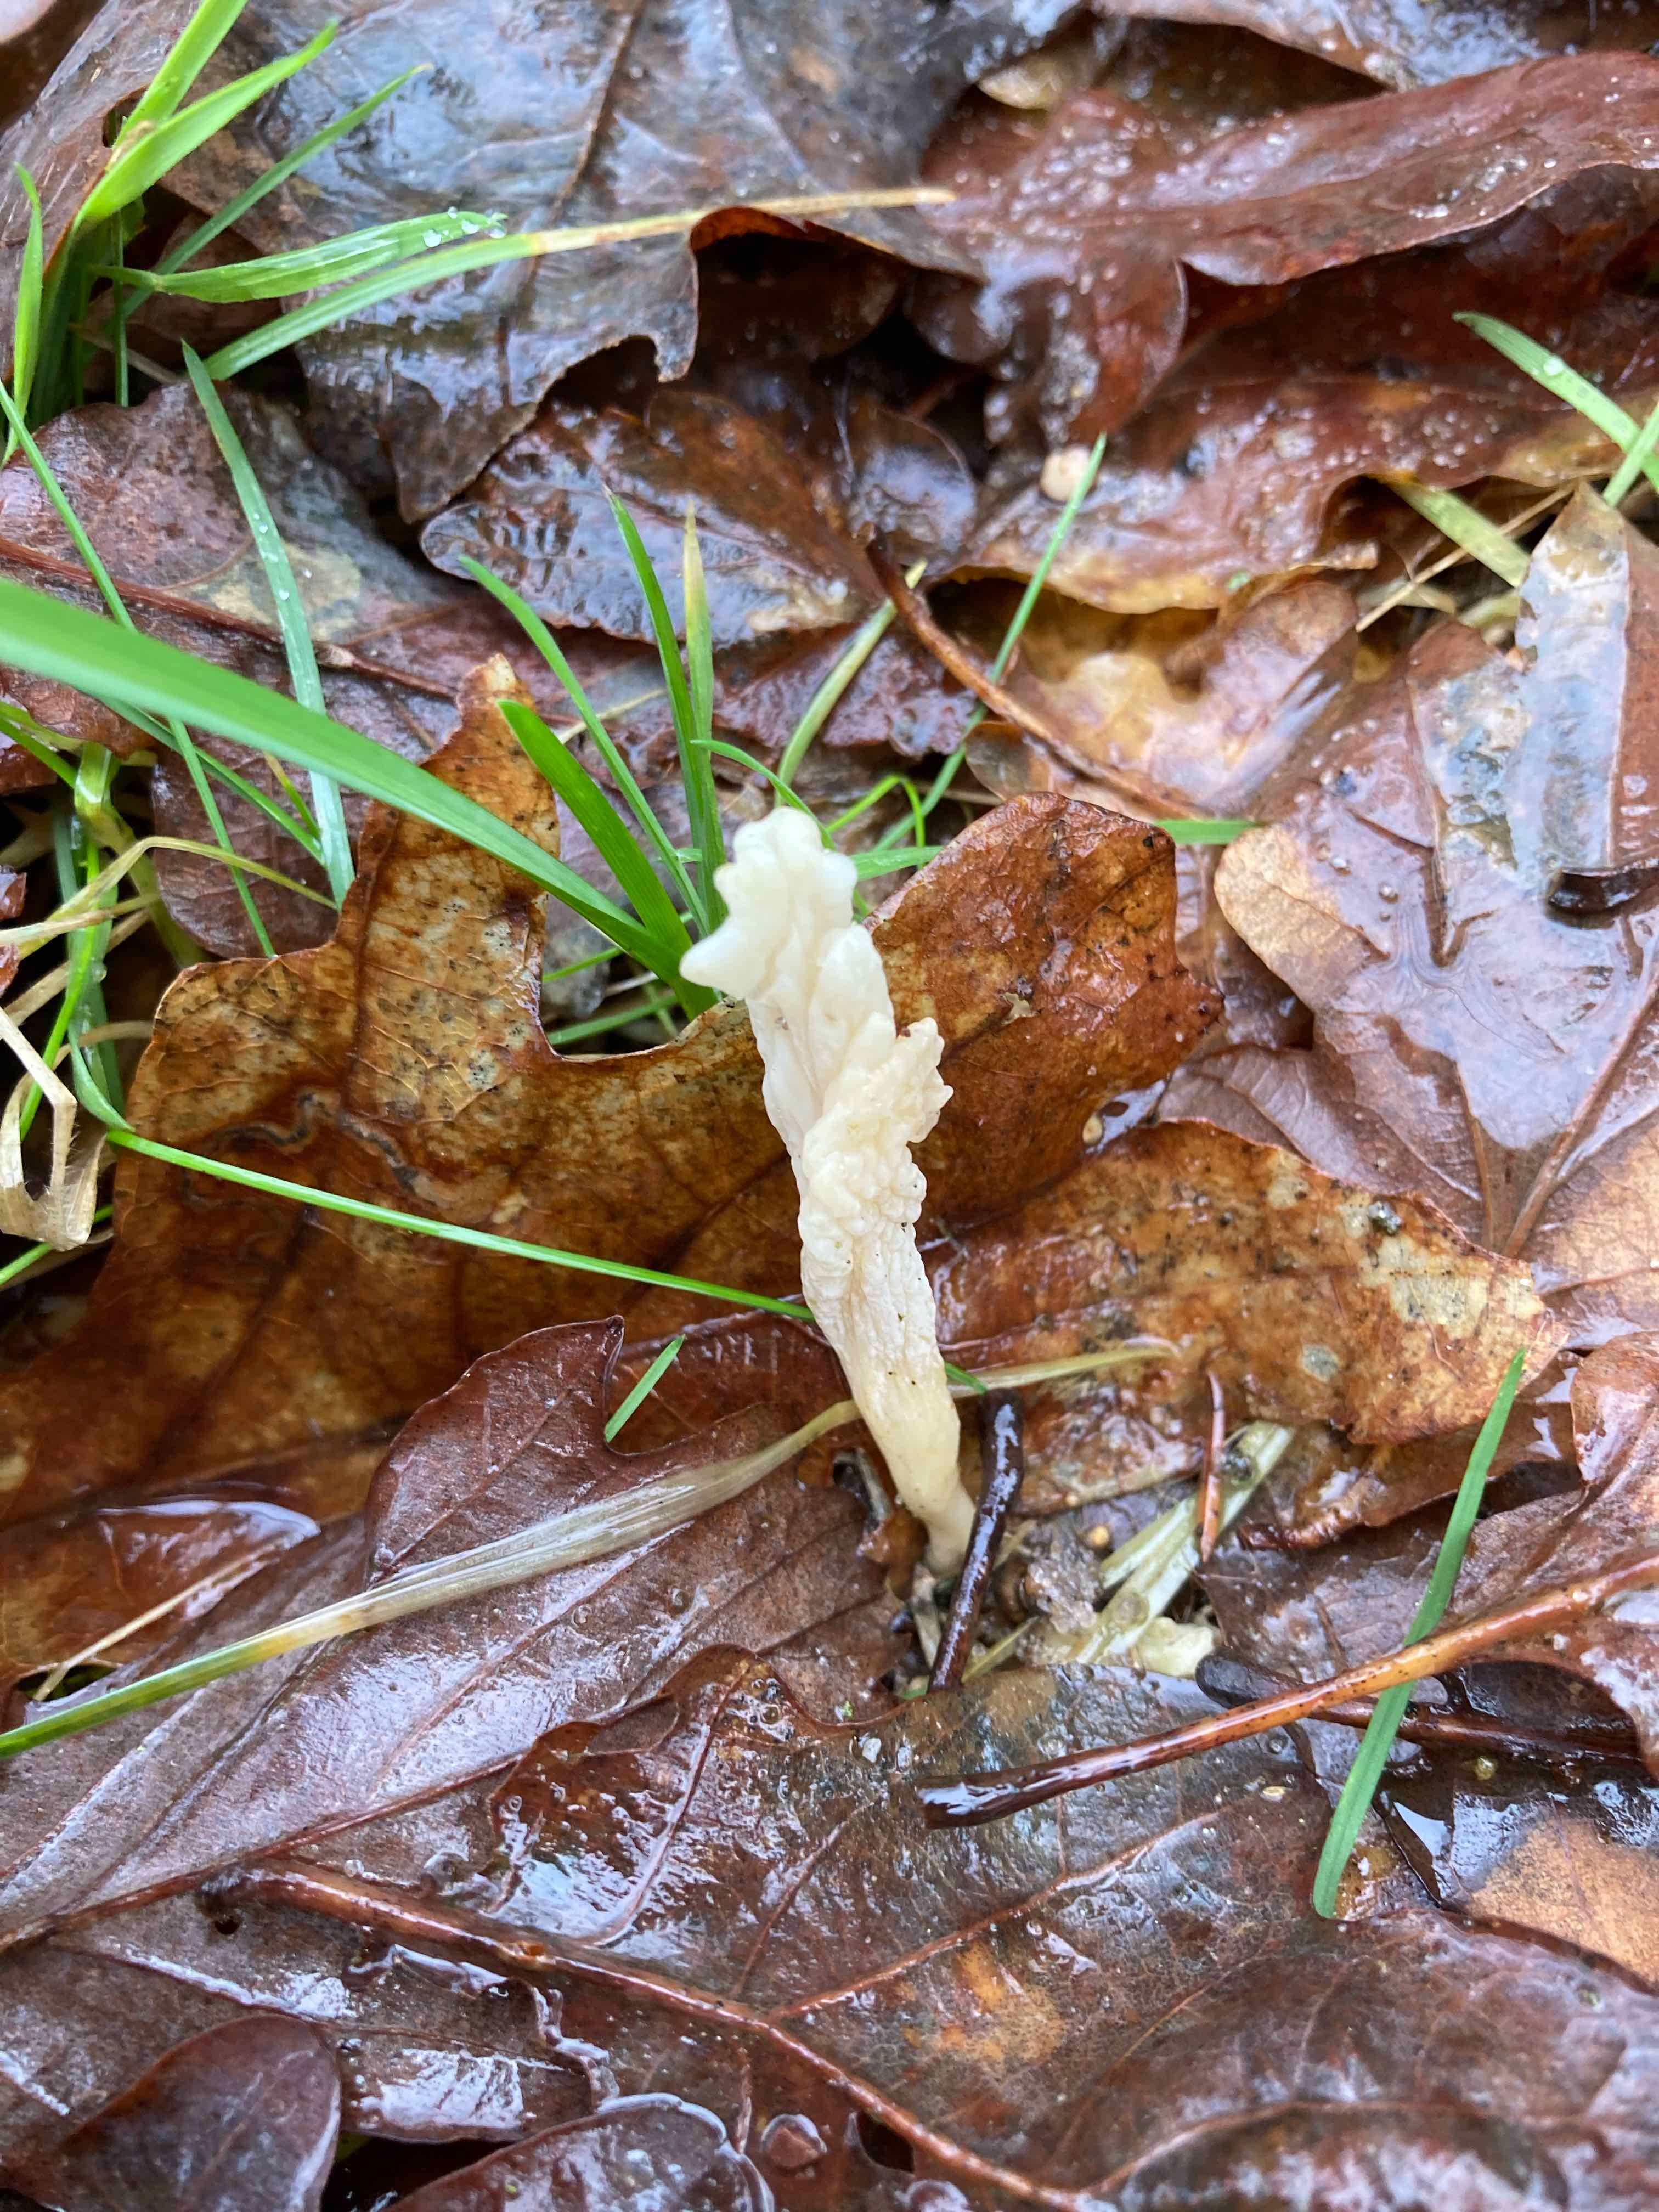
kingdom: Fungi
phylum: Basidiomycota
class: Agaricomycetes
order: Cantharellales
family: Hydnaceae
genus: Clavulina
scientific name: Clavulina
